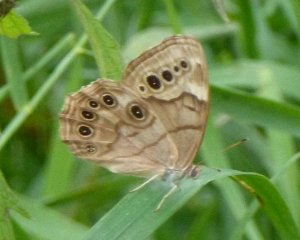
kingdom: Animalia
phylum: Arthropoda
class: Insecta
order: Lepidoptera
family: Nymphalidae
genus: Lethe
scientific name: Lethe anthedon
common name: Northern Pearly-Eye
